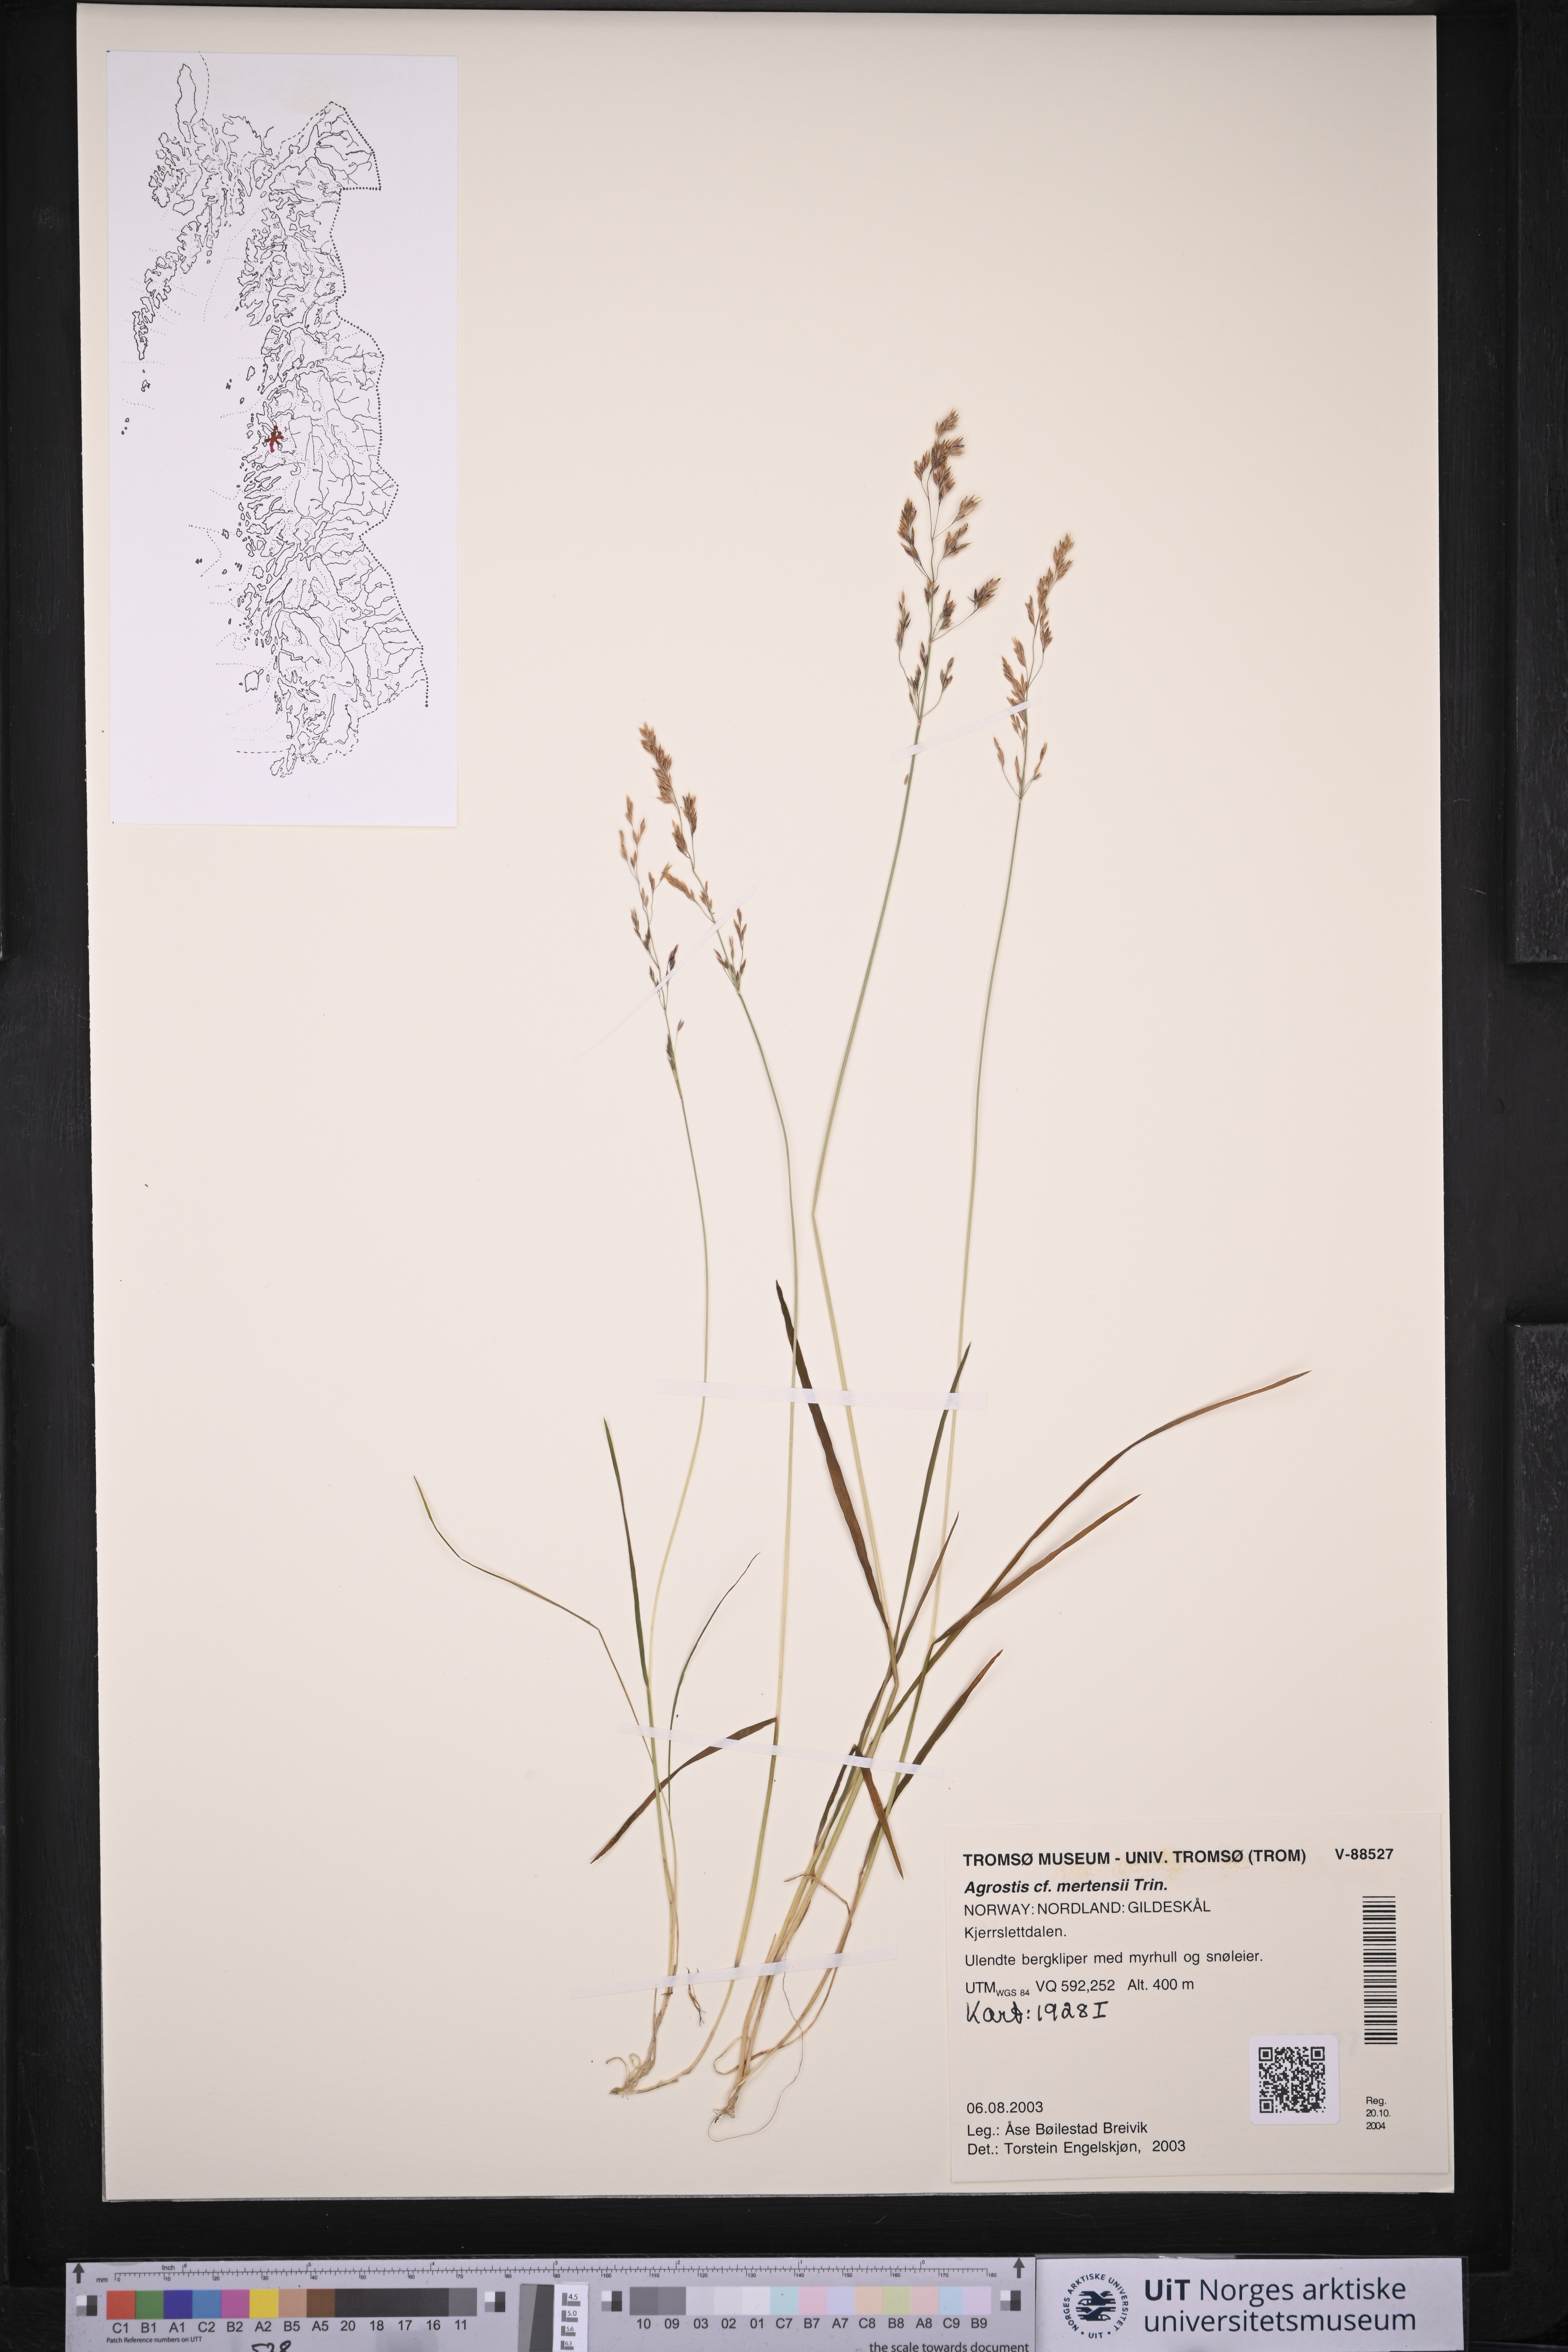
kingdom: Plantae
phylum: Tracheophyta
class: Liliopsida
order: Poales
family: Poaceae
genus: Agrostis
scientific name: Agrostis mertensii
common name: Northern bent
